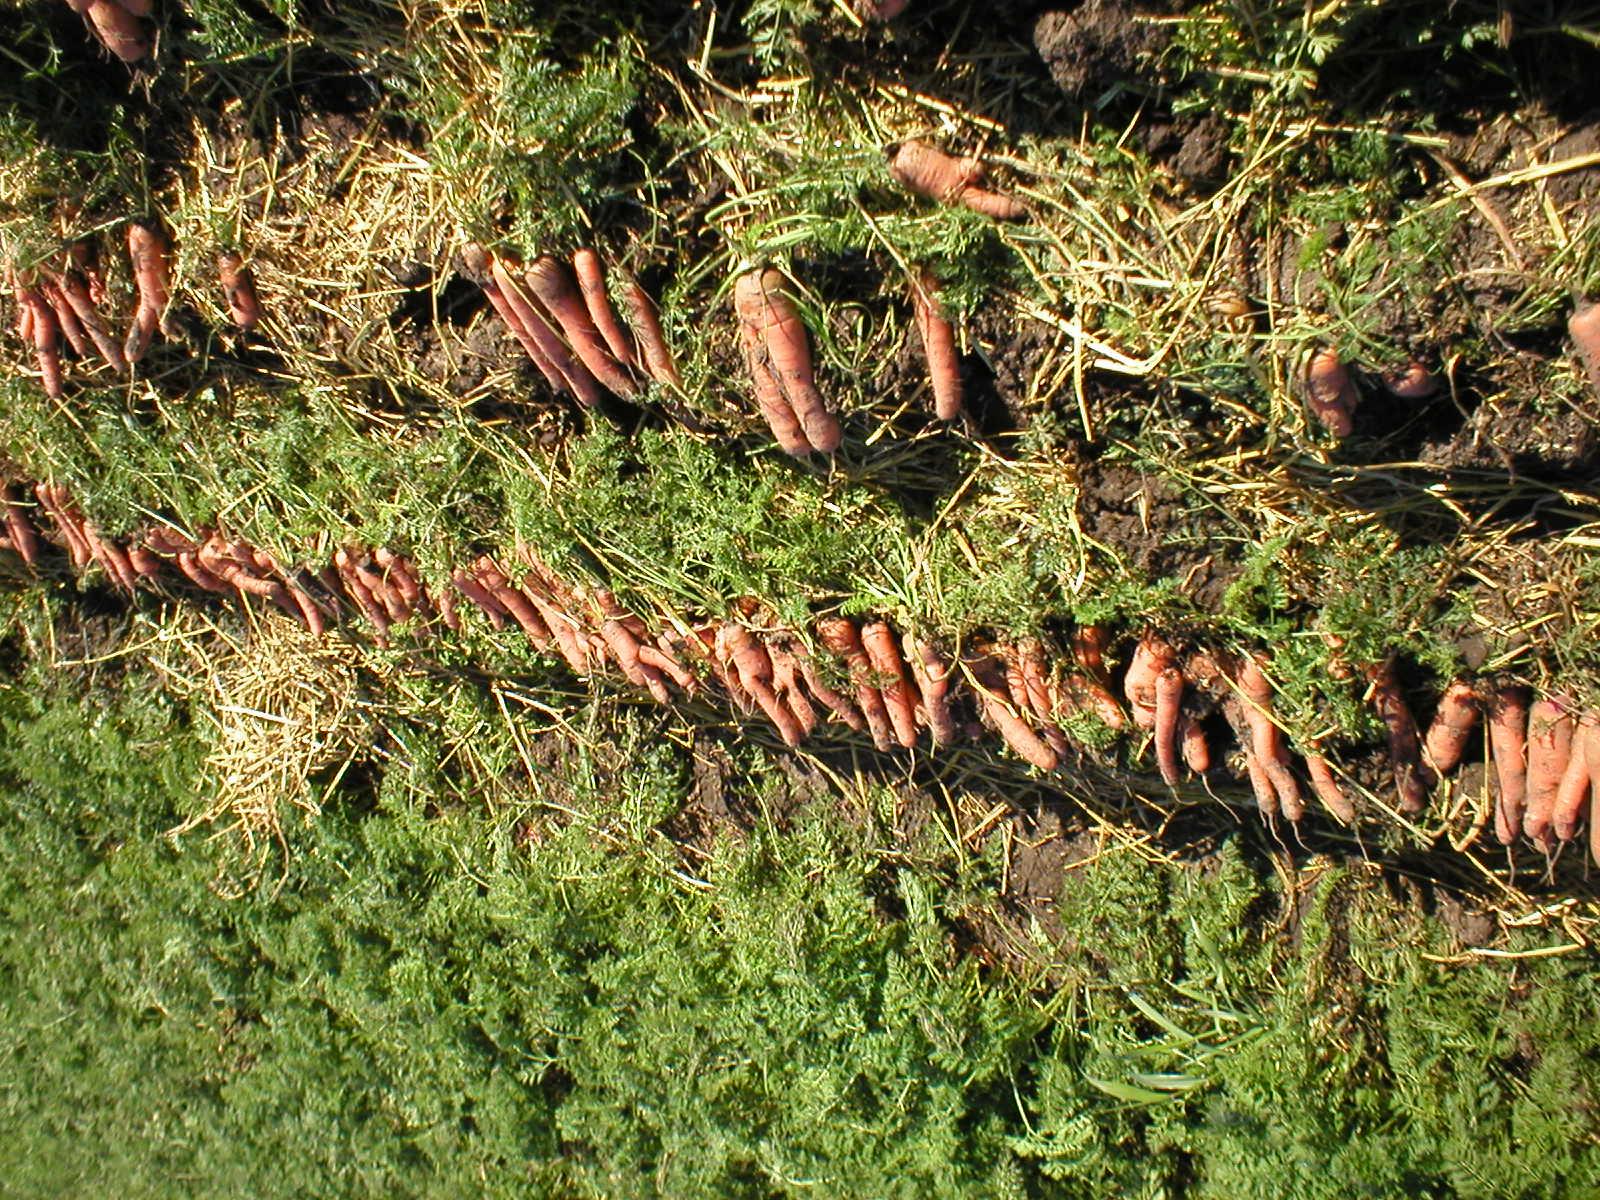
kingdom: Plantae
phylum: Tracheophyta
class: Magnoliopsida
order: Apiales
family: Apiaceae
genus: Daucus
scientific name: Daucus carota
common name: Wild carrot
